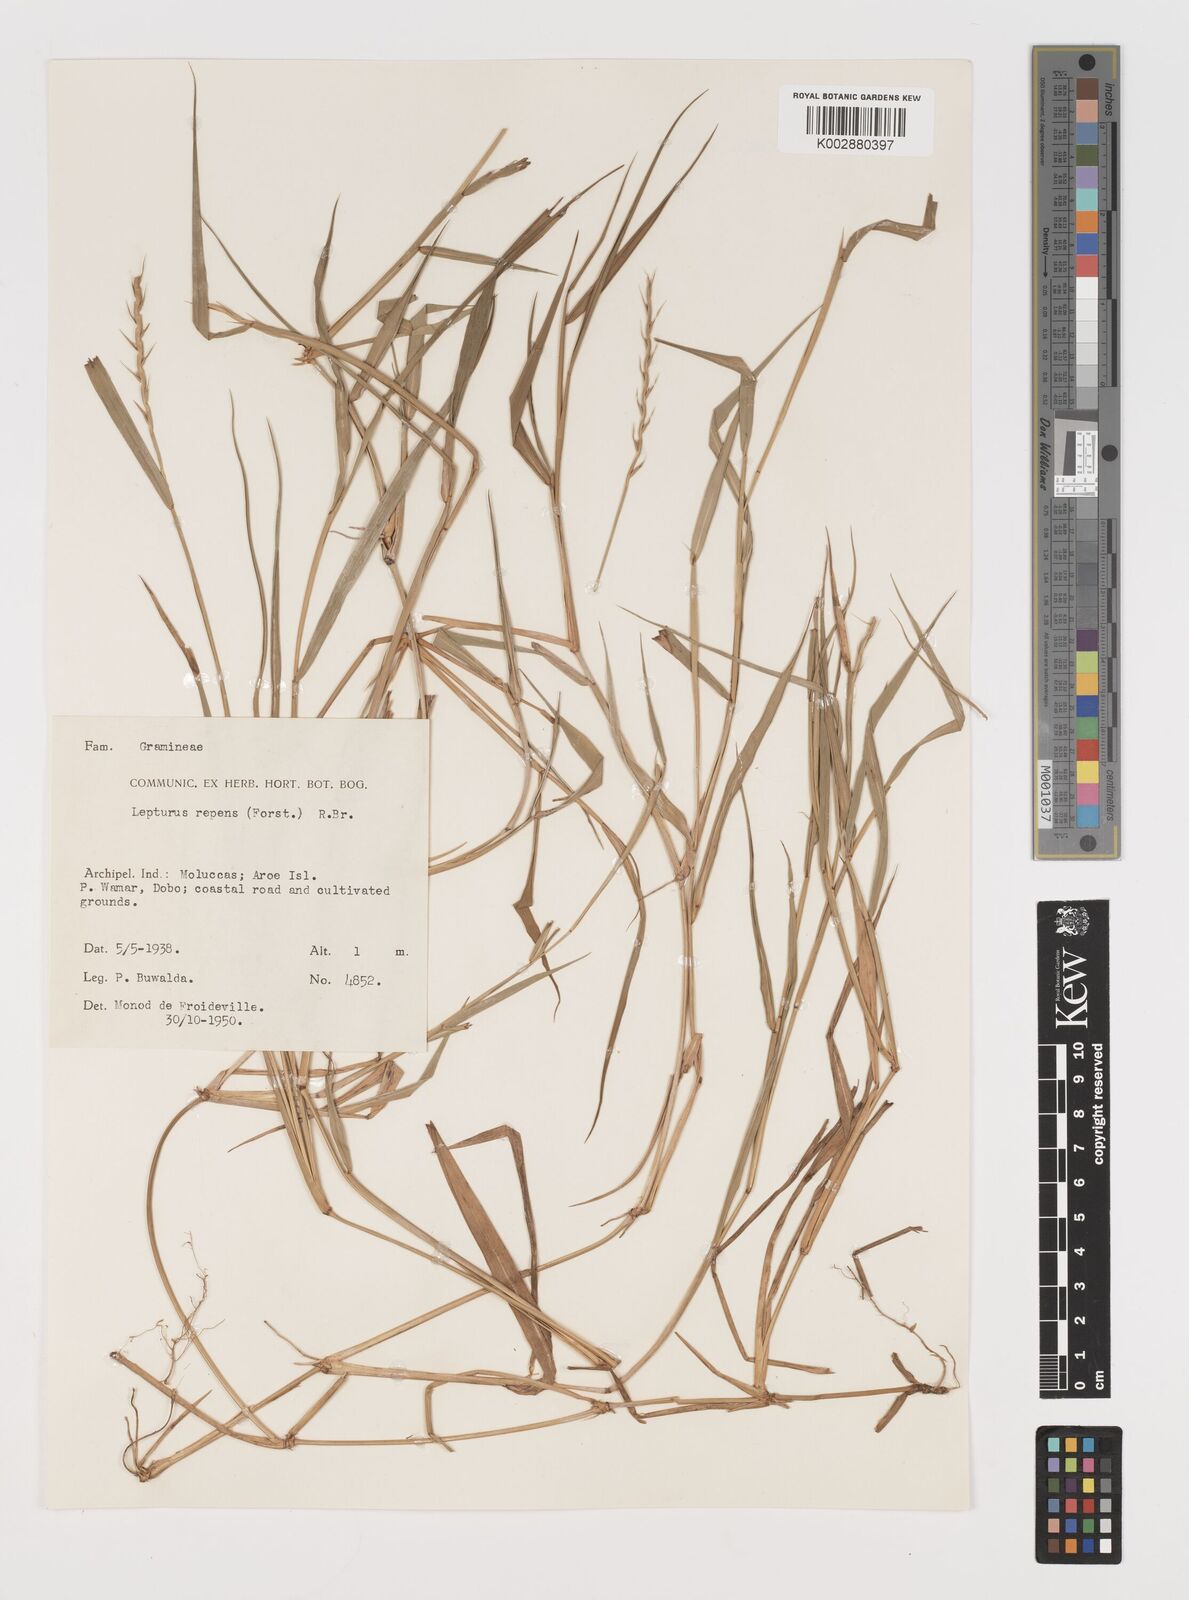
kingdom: Plantae
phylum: Tracheophyta
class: Liliopsida
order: Poales
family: Poaceae
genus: Lepturus
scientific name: Lepturus repens
